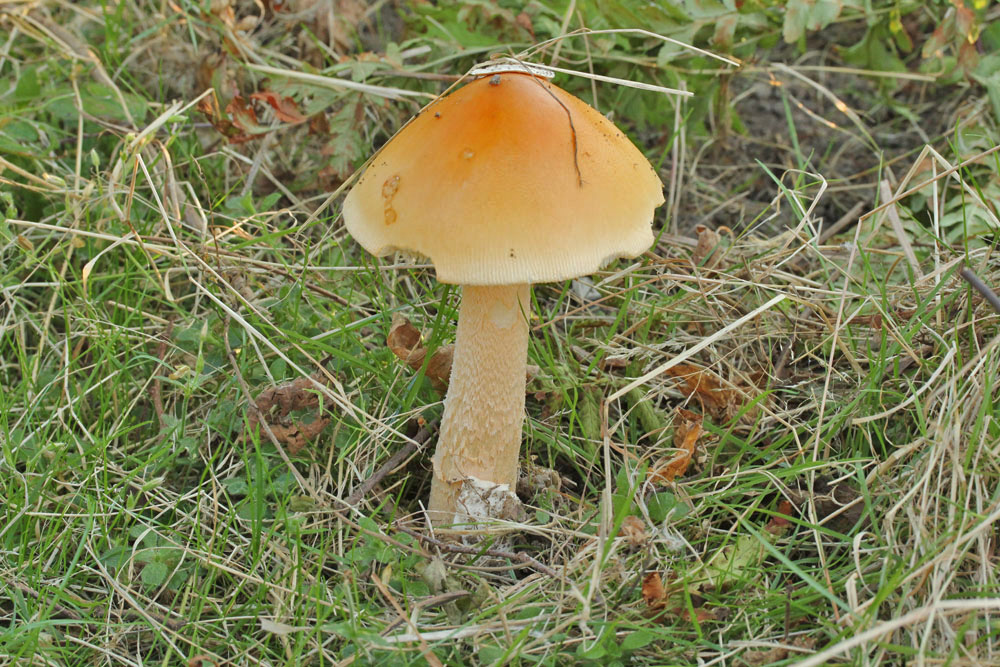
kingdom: Fungi
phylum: Basidiomycota
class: Agaricomycetes
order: Agaricales
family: Amanitaceae
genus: Amanita
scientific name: Amanita crocea
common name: gylden kam-fluesvamp
